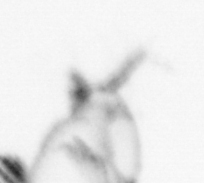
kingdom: Animalia
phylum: Arthropoda
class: Copepoda
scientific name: Copepoda
